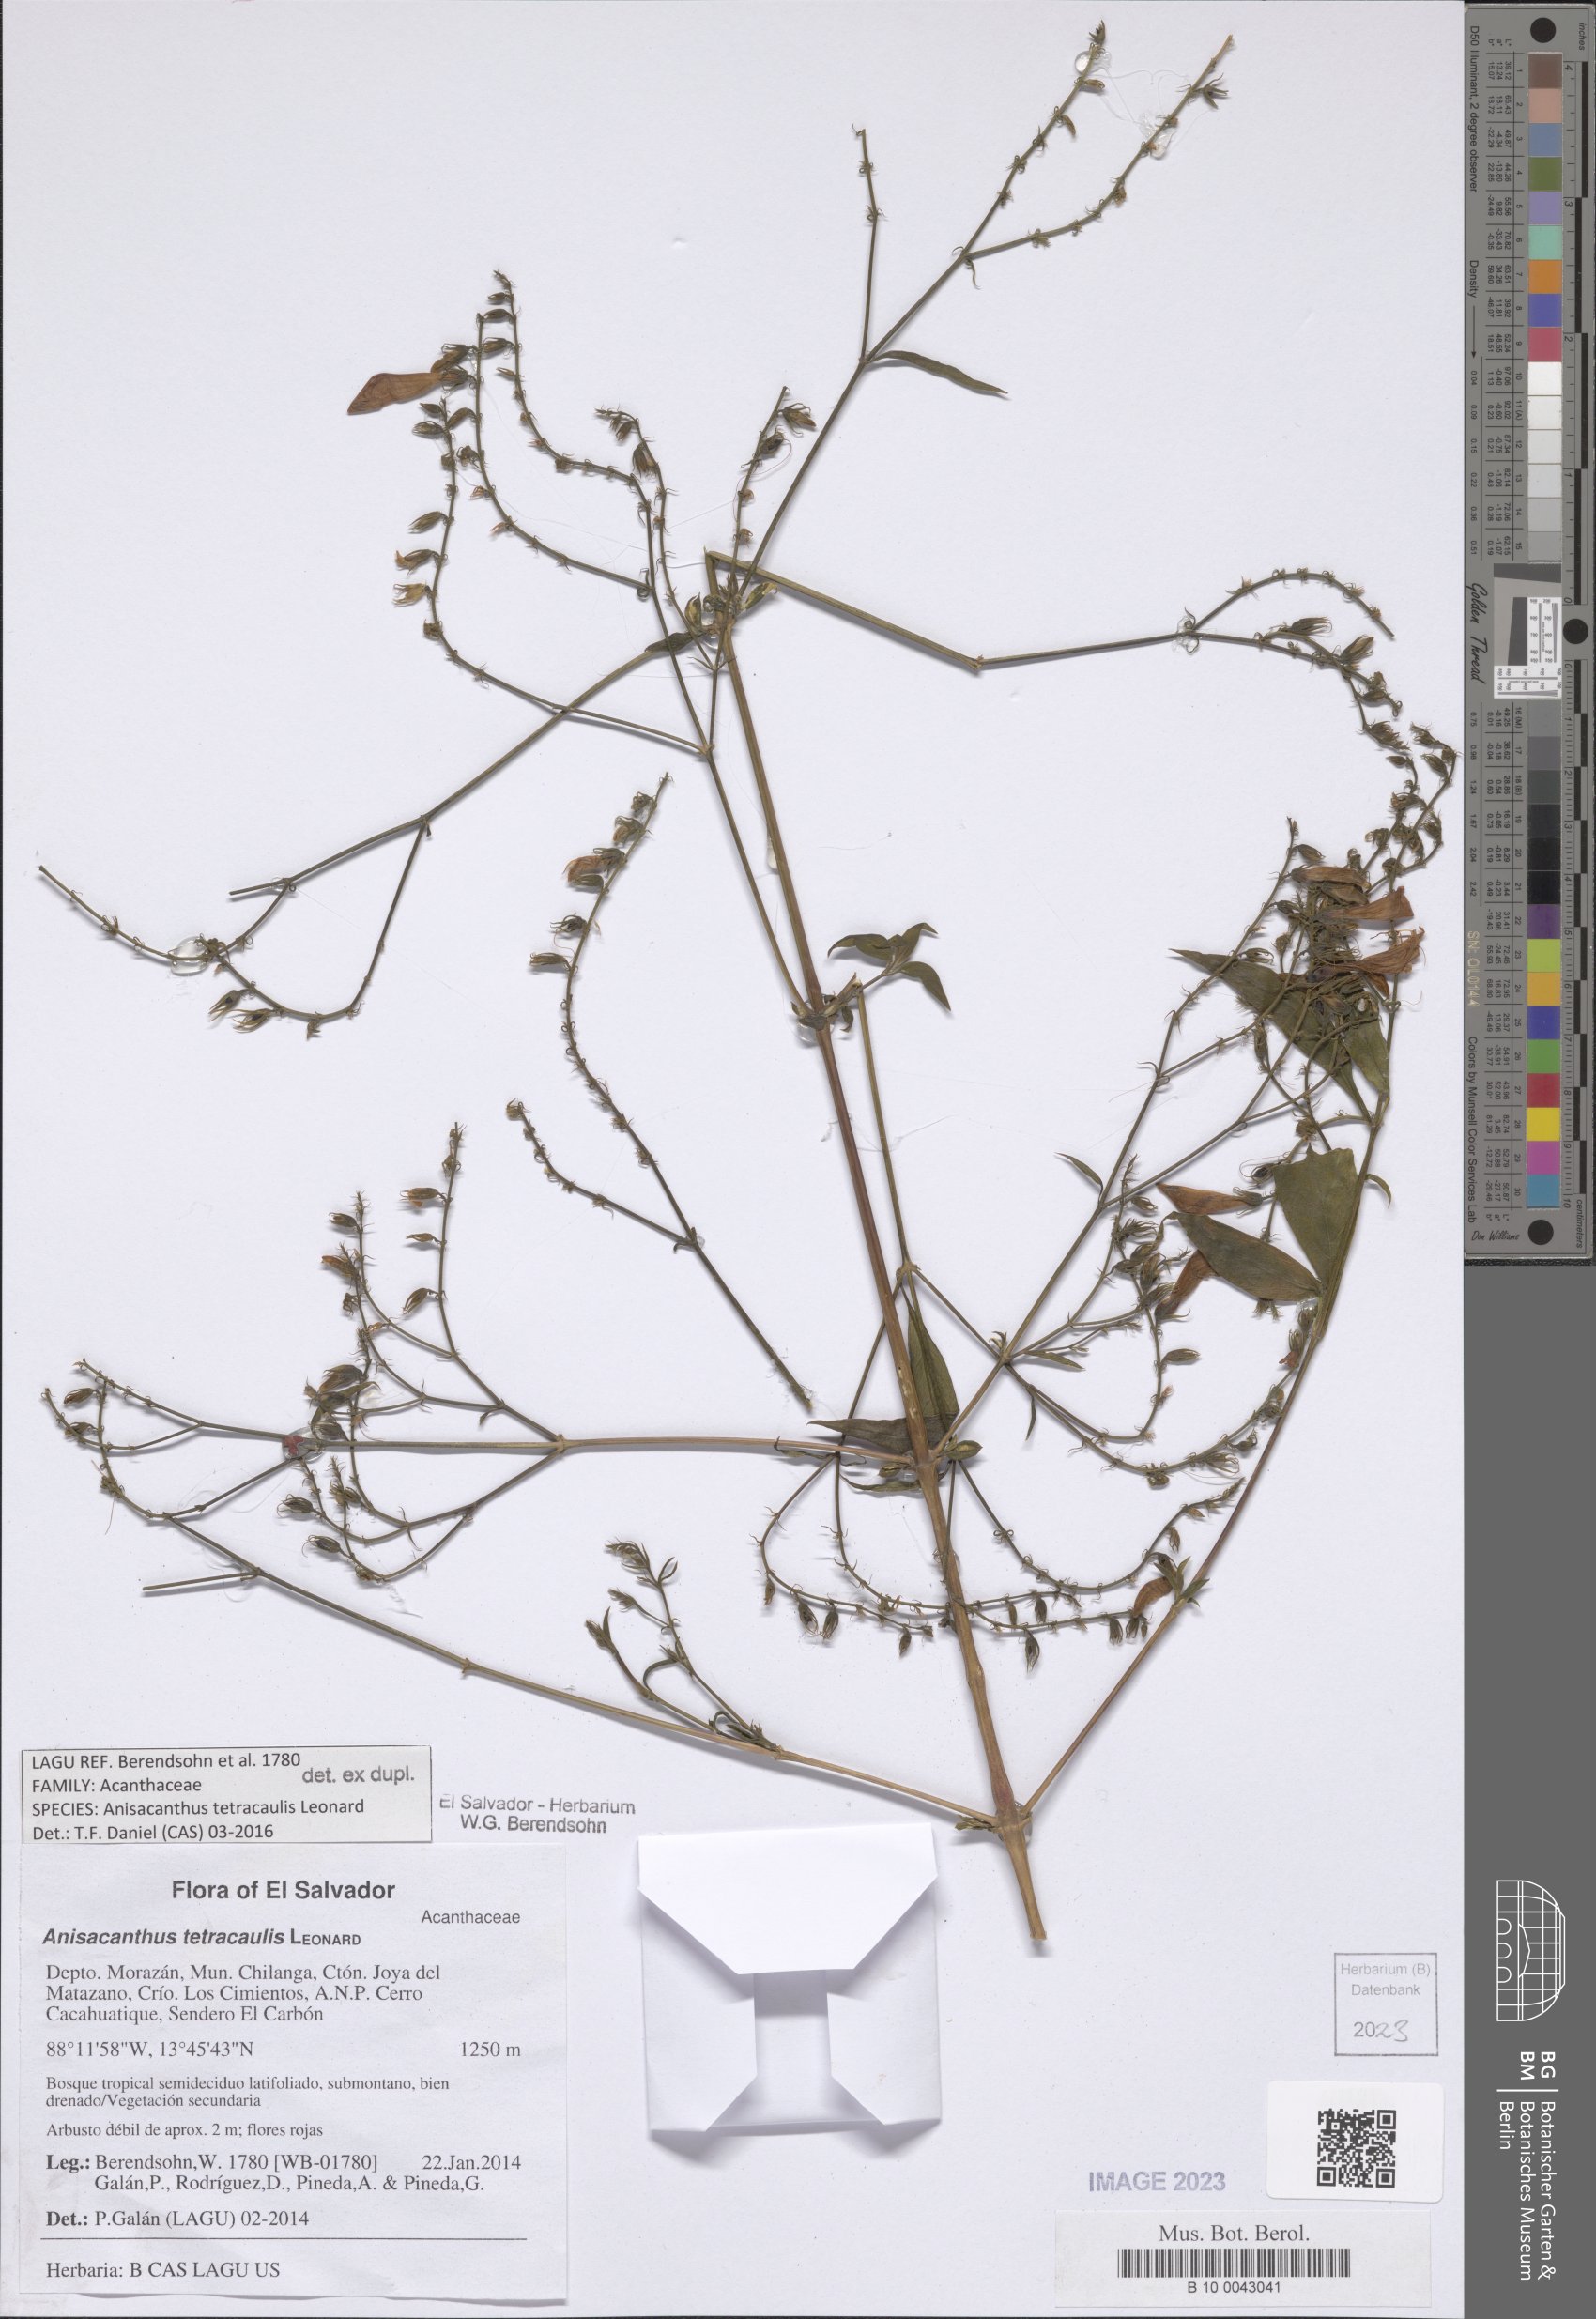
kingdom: Plantae
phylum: Tracheophyta
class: Magnoliopsida
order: Lamiales
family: Acanthaceae
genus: Anisacanthus
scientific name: Anisacanthus tetracaulis
